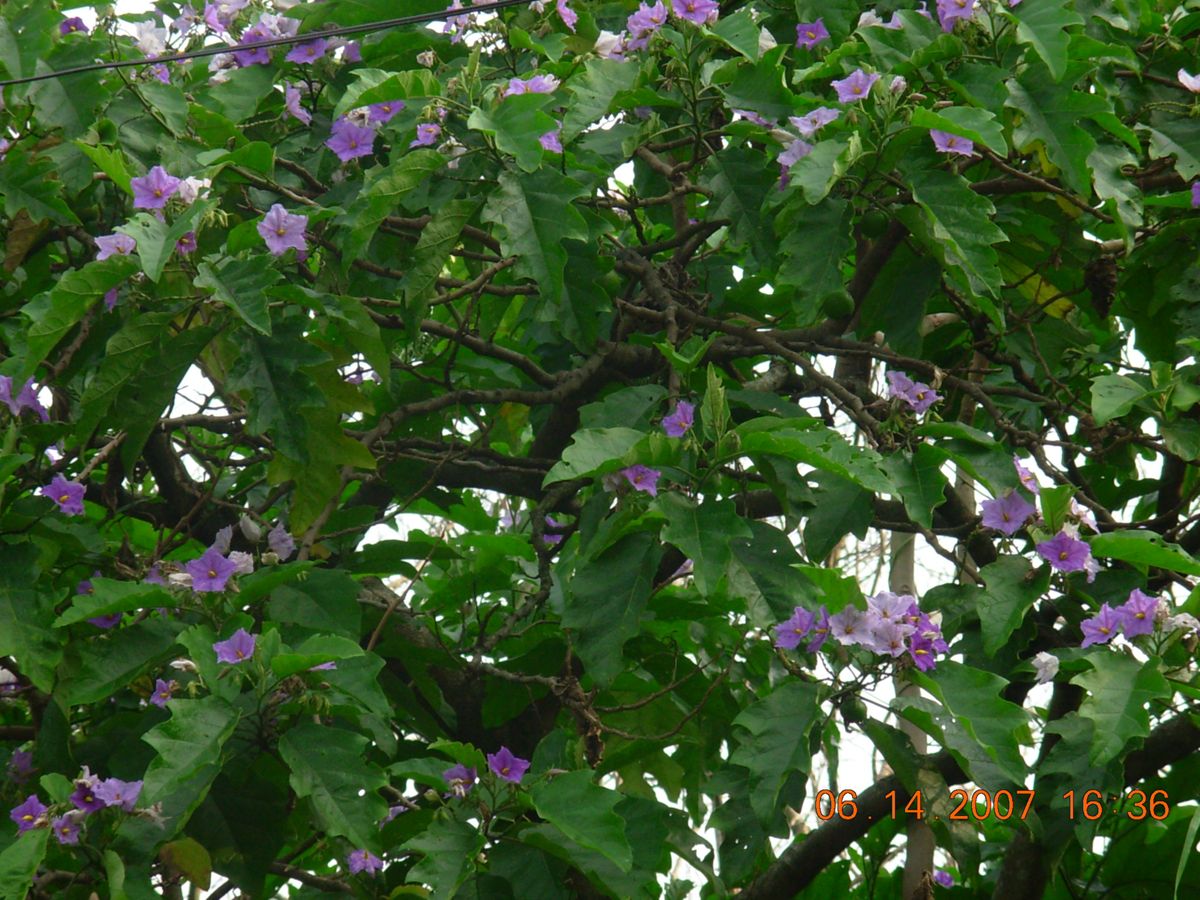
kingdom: Plantae
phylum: Tracheophyta
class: Magnoliopsida
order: Solanales
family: Solanaceae
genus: Solanum
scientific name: Solanum wrightii
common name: Brazilian potato-tree
